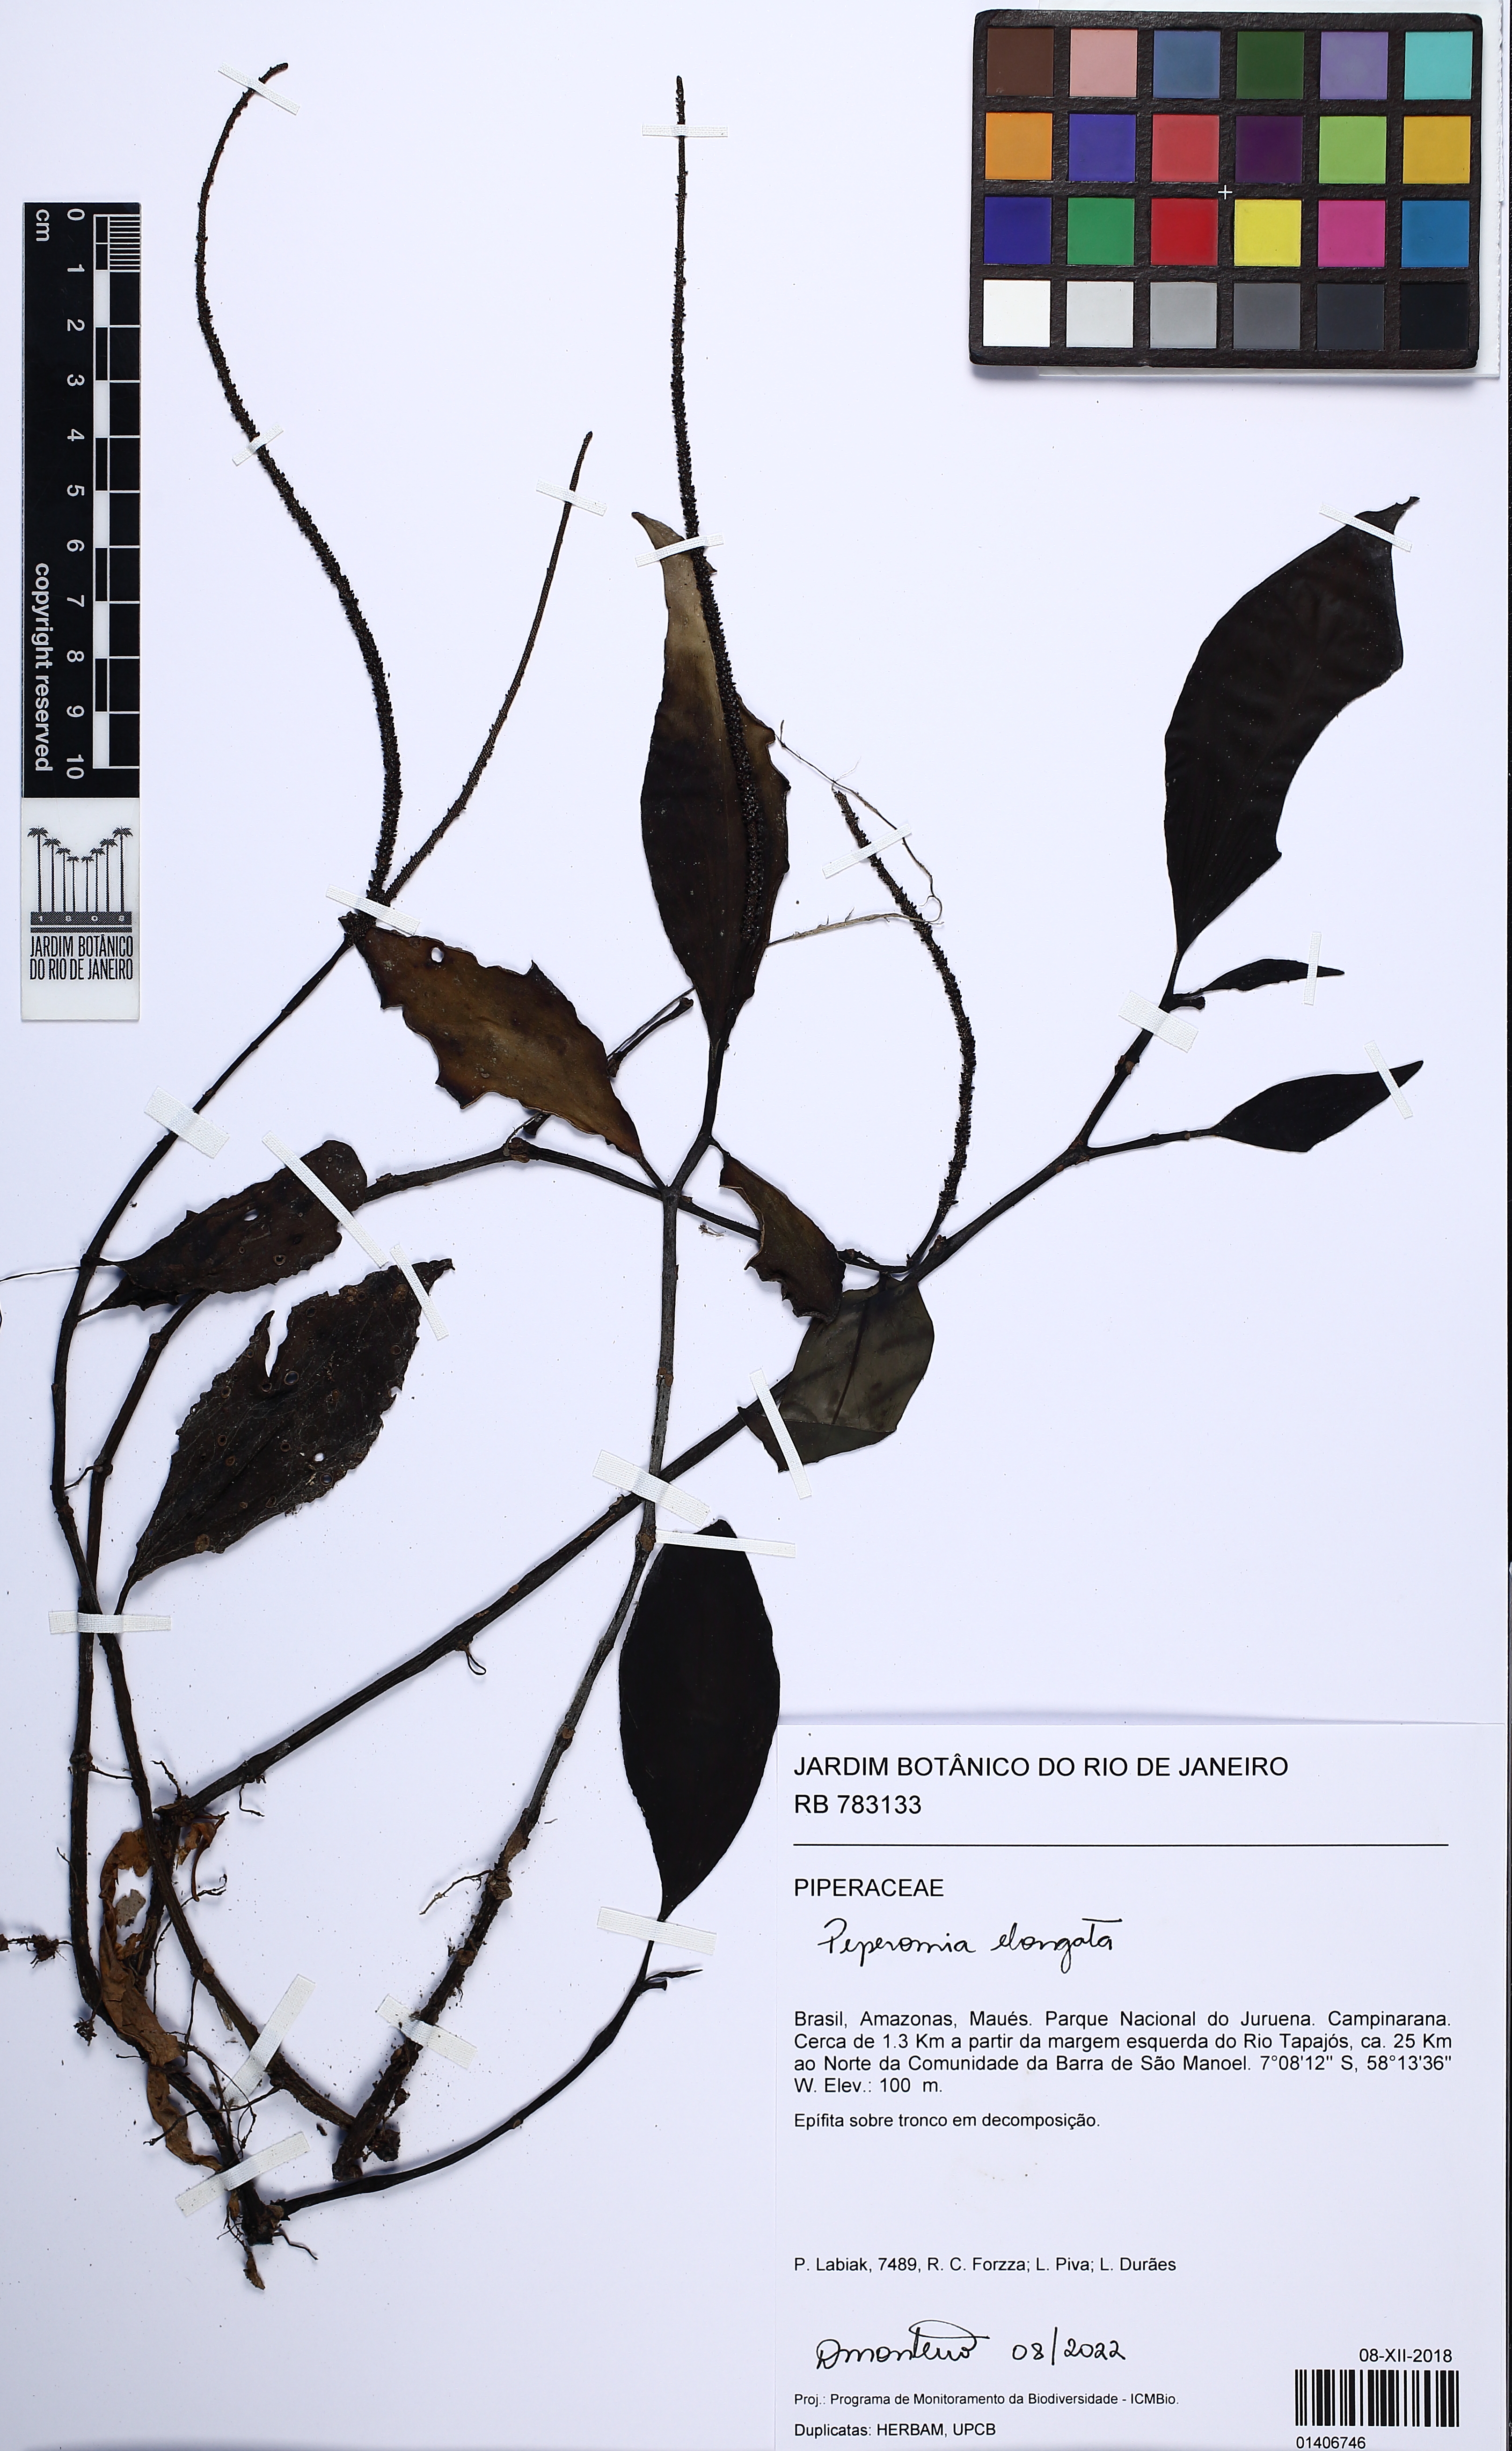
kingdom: Plantae
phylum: Tracheophyta
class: Magnoliopsida
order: Piperales
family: Piperaceae
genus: Peperomia
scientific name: Peperomia elongata
